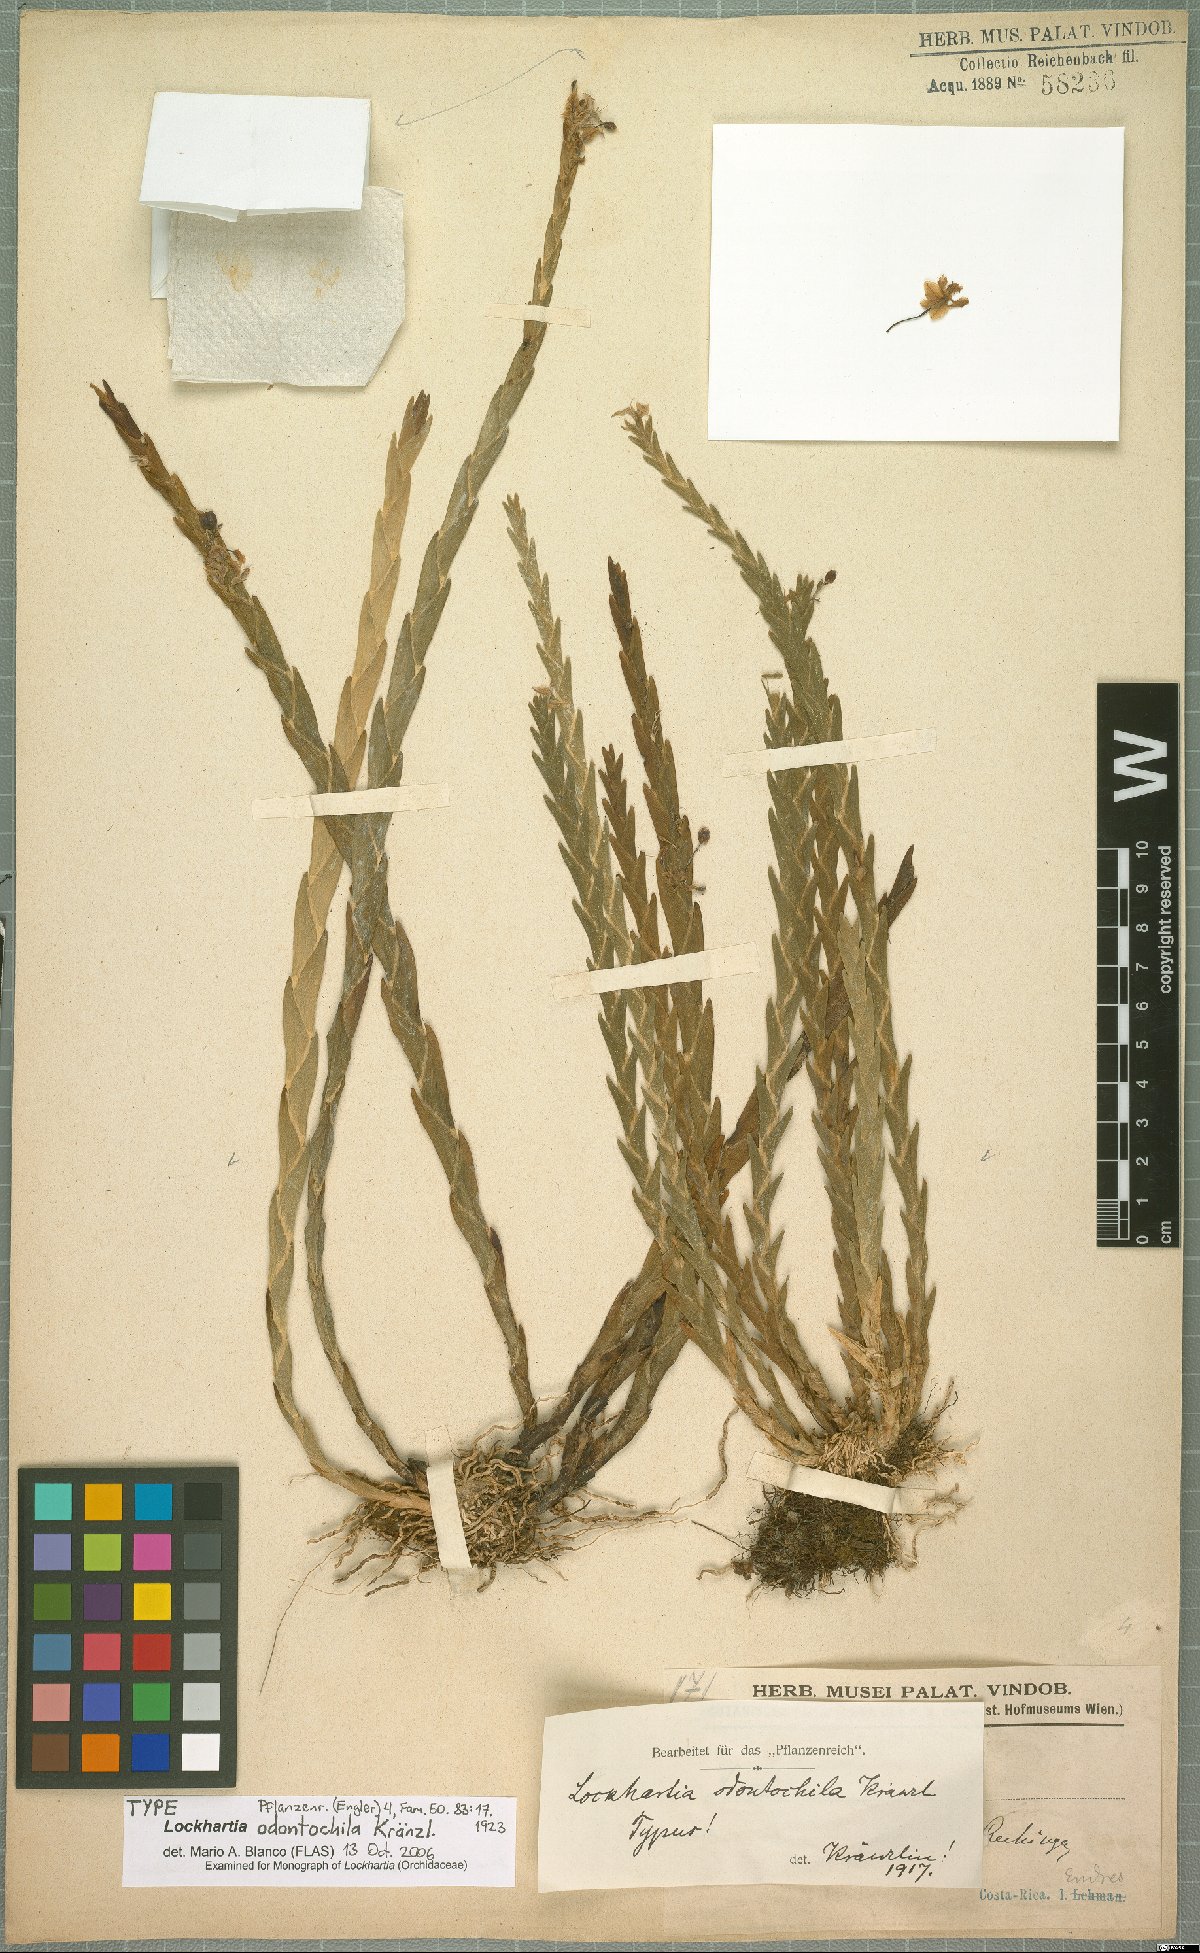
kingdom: Plantae
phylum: Tracheophyta
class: Liliopsida
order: Asparagales
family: Orchidaceae
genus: Lockhartia
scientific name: Lockhartia odontochila
